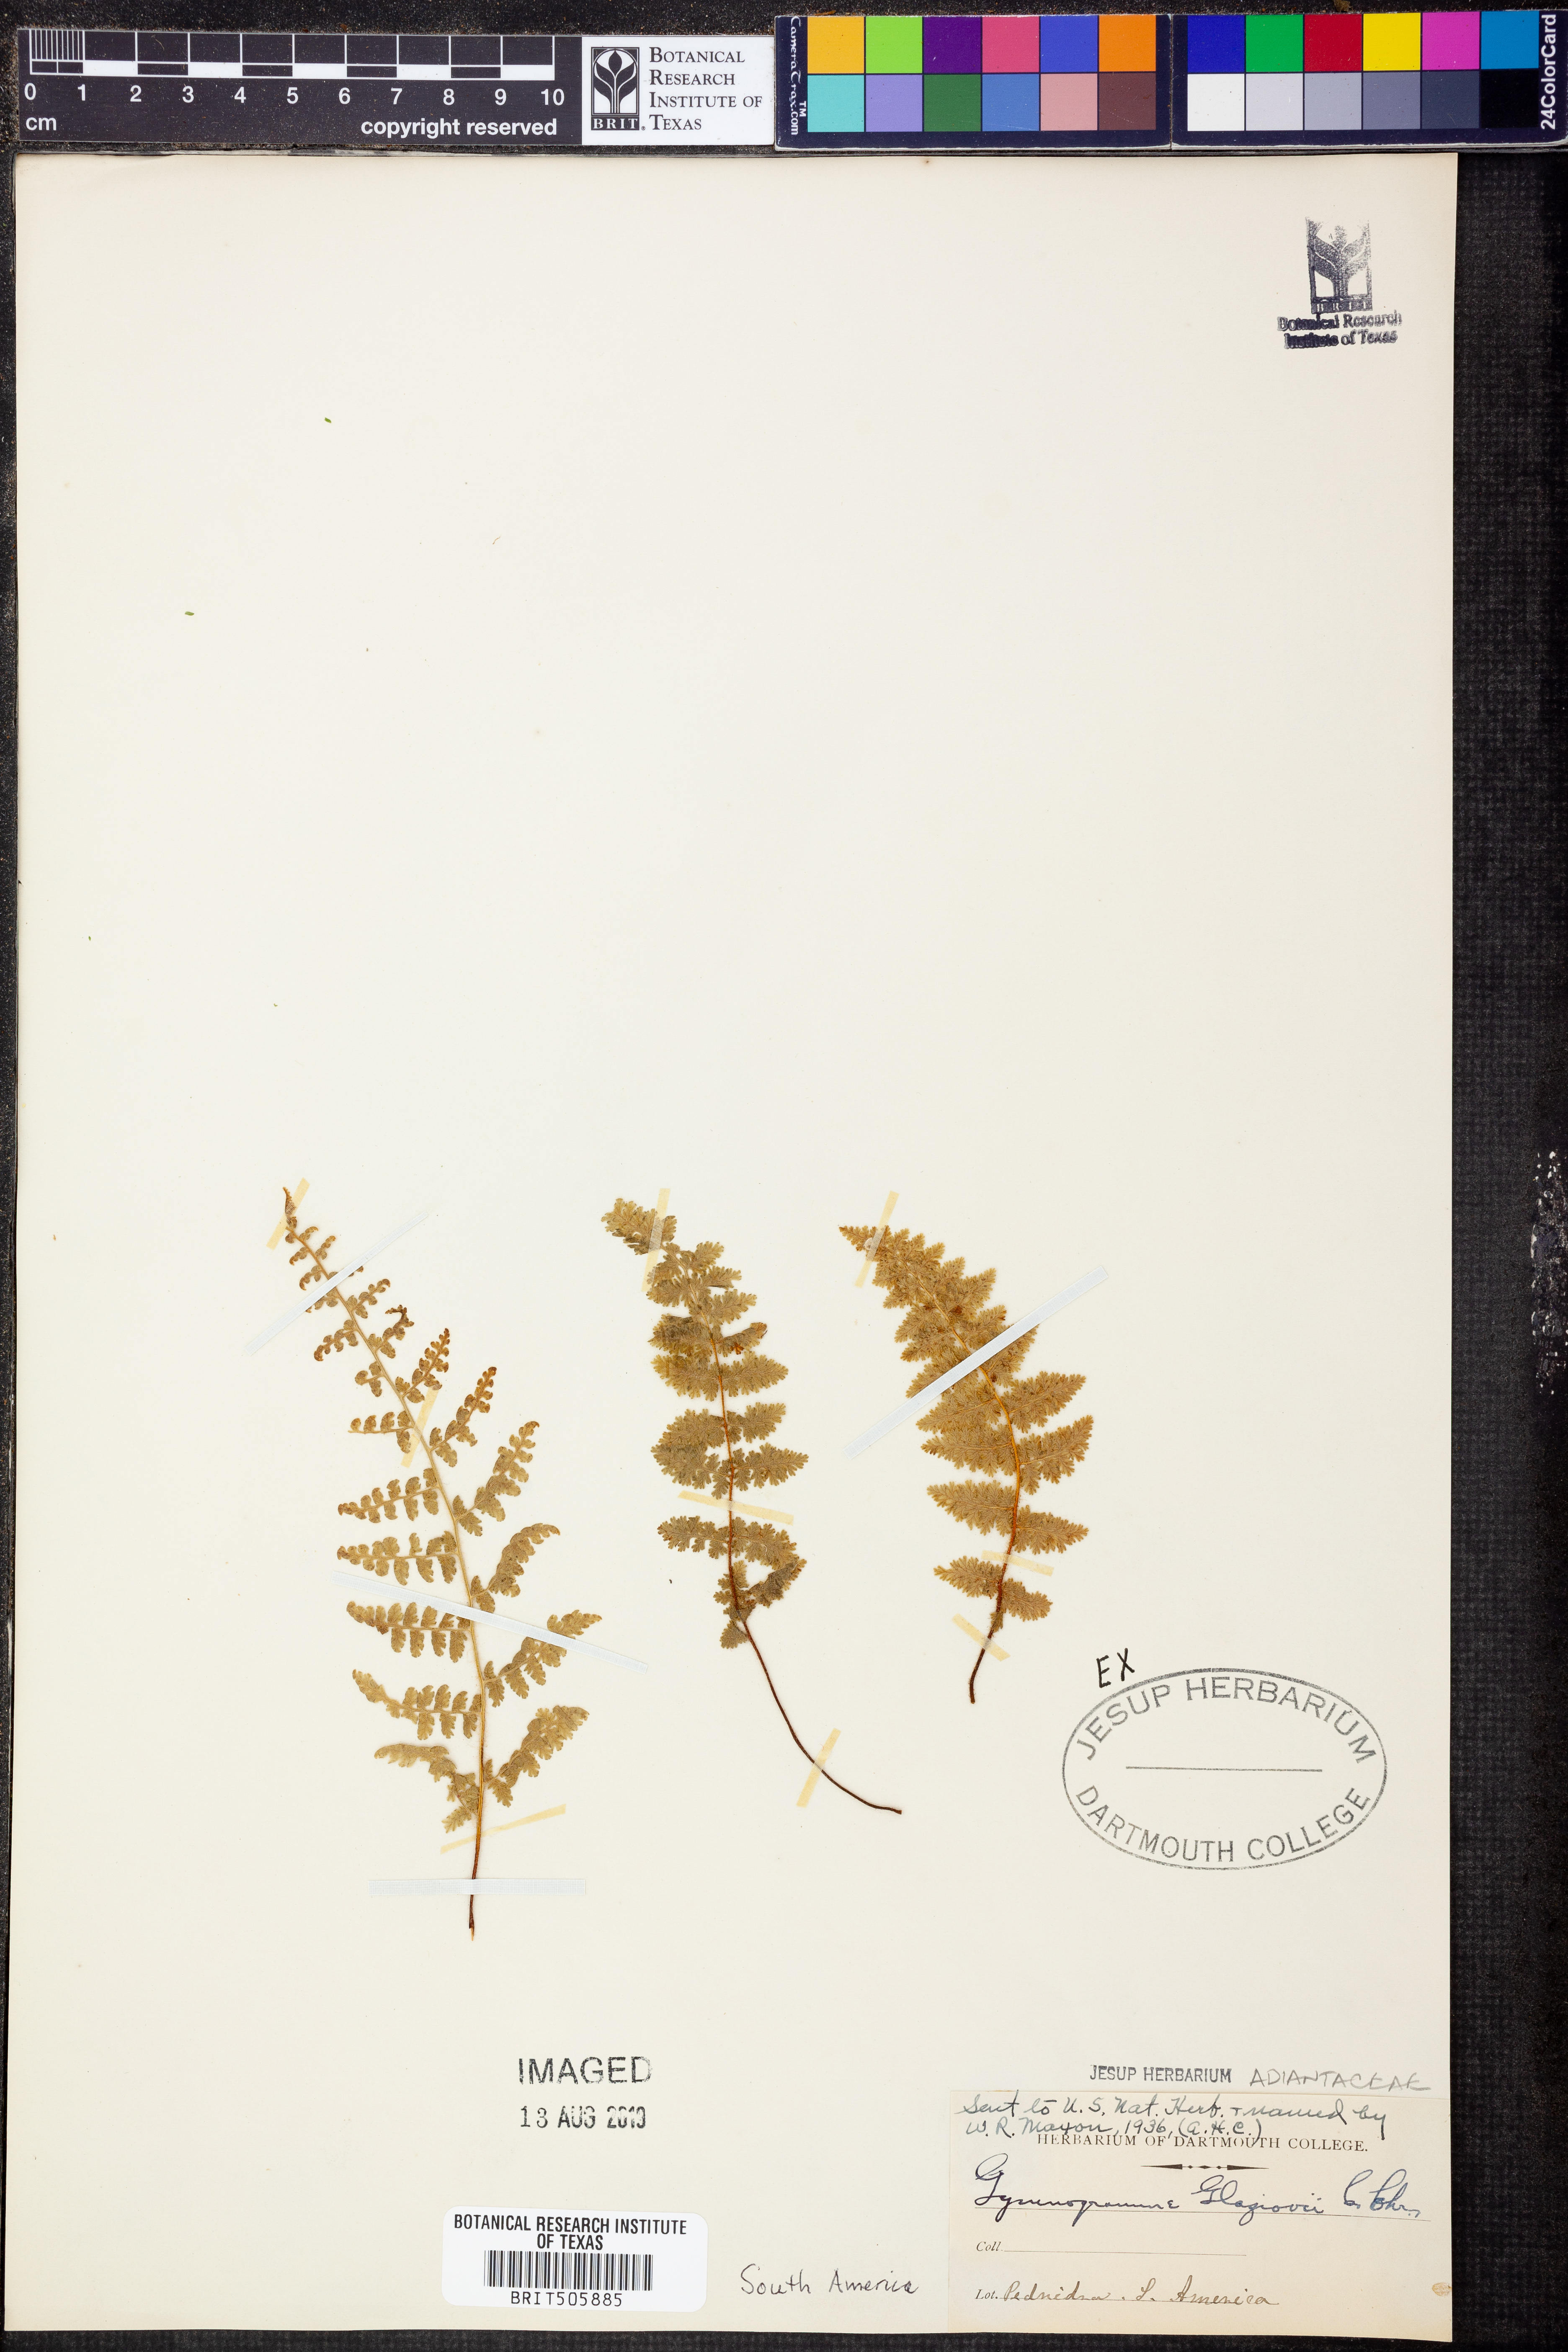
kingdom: Plantae
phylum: Tracheophyta
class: Polypodiopsida
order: Polypodiales
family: Pteridaceae
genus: Tryonia
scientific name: Tryonia myriophylla
